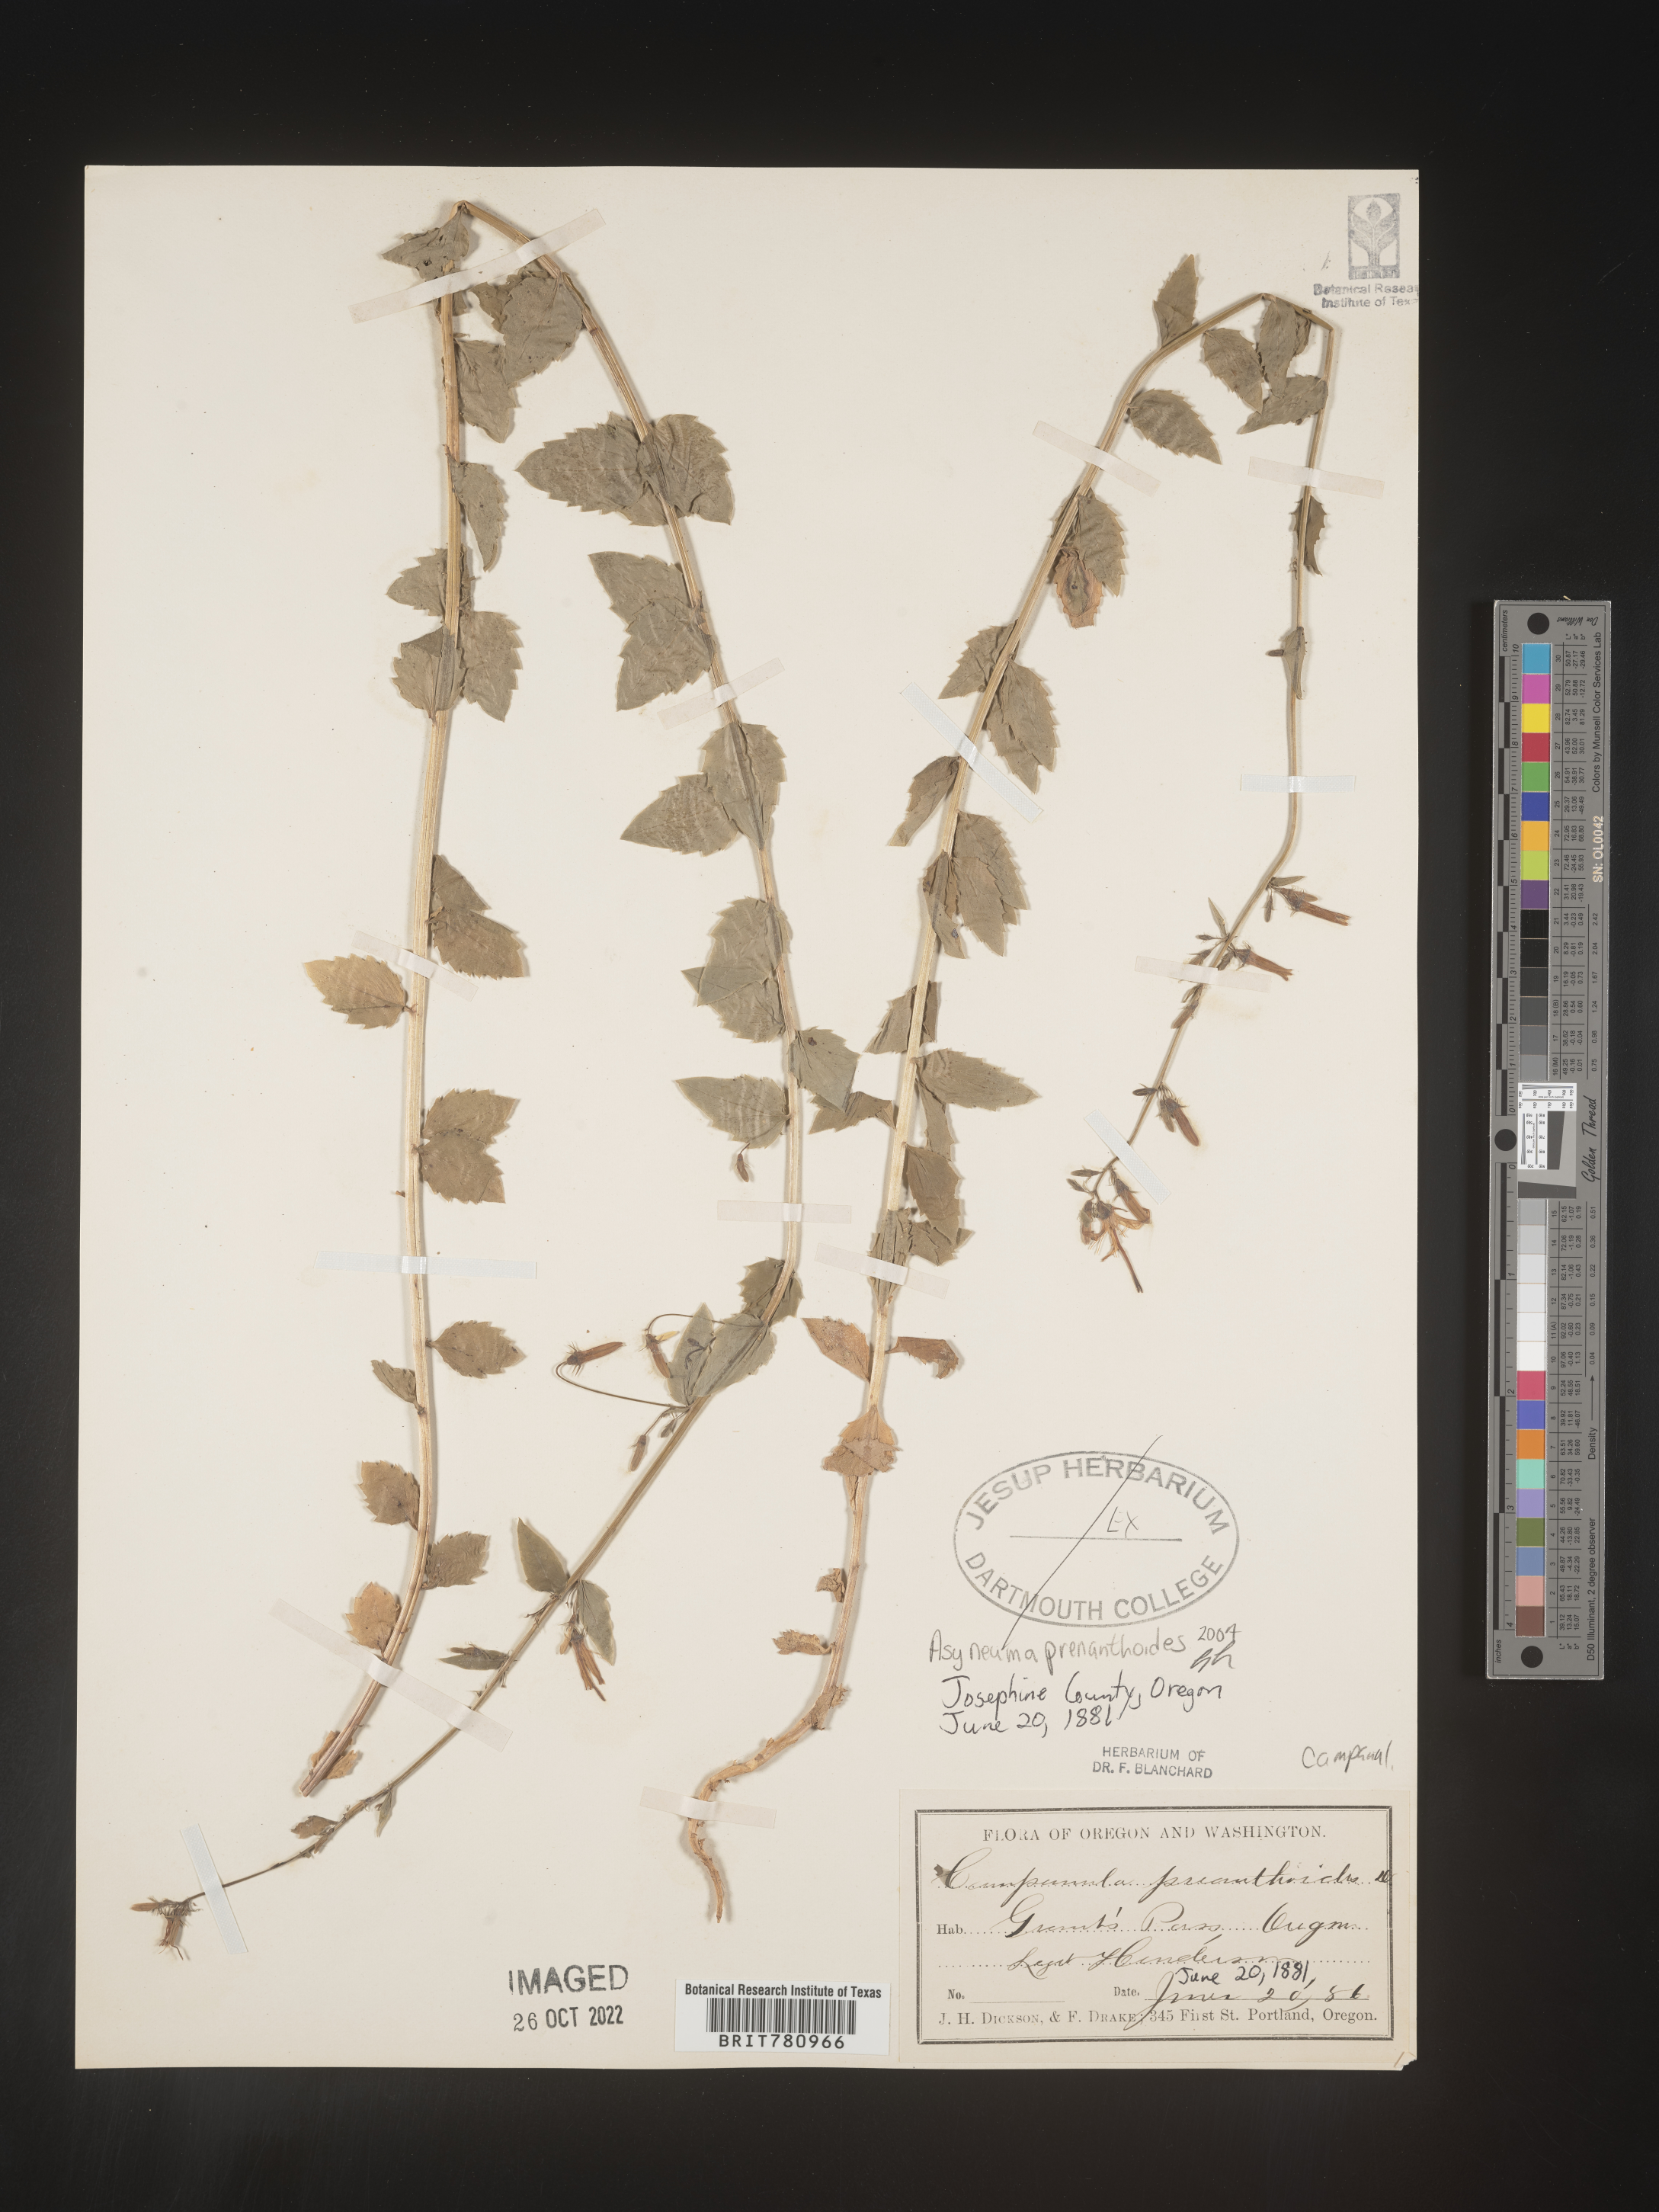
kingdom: Plantae
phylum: Tracheophyta
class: Magnoliopsida
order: Asterales
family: Campanulaceae
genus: Smithiastrum
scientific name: Smithiastrum prenanthoides
